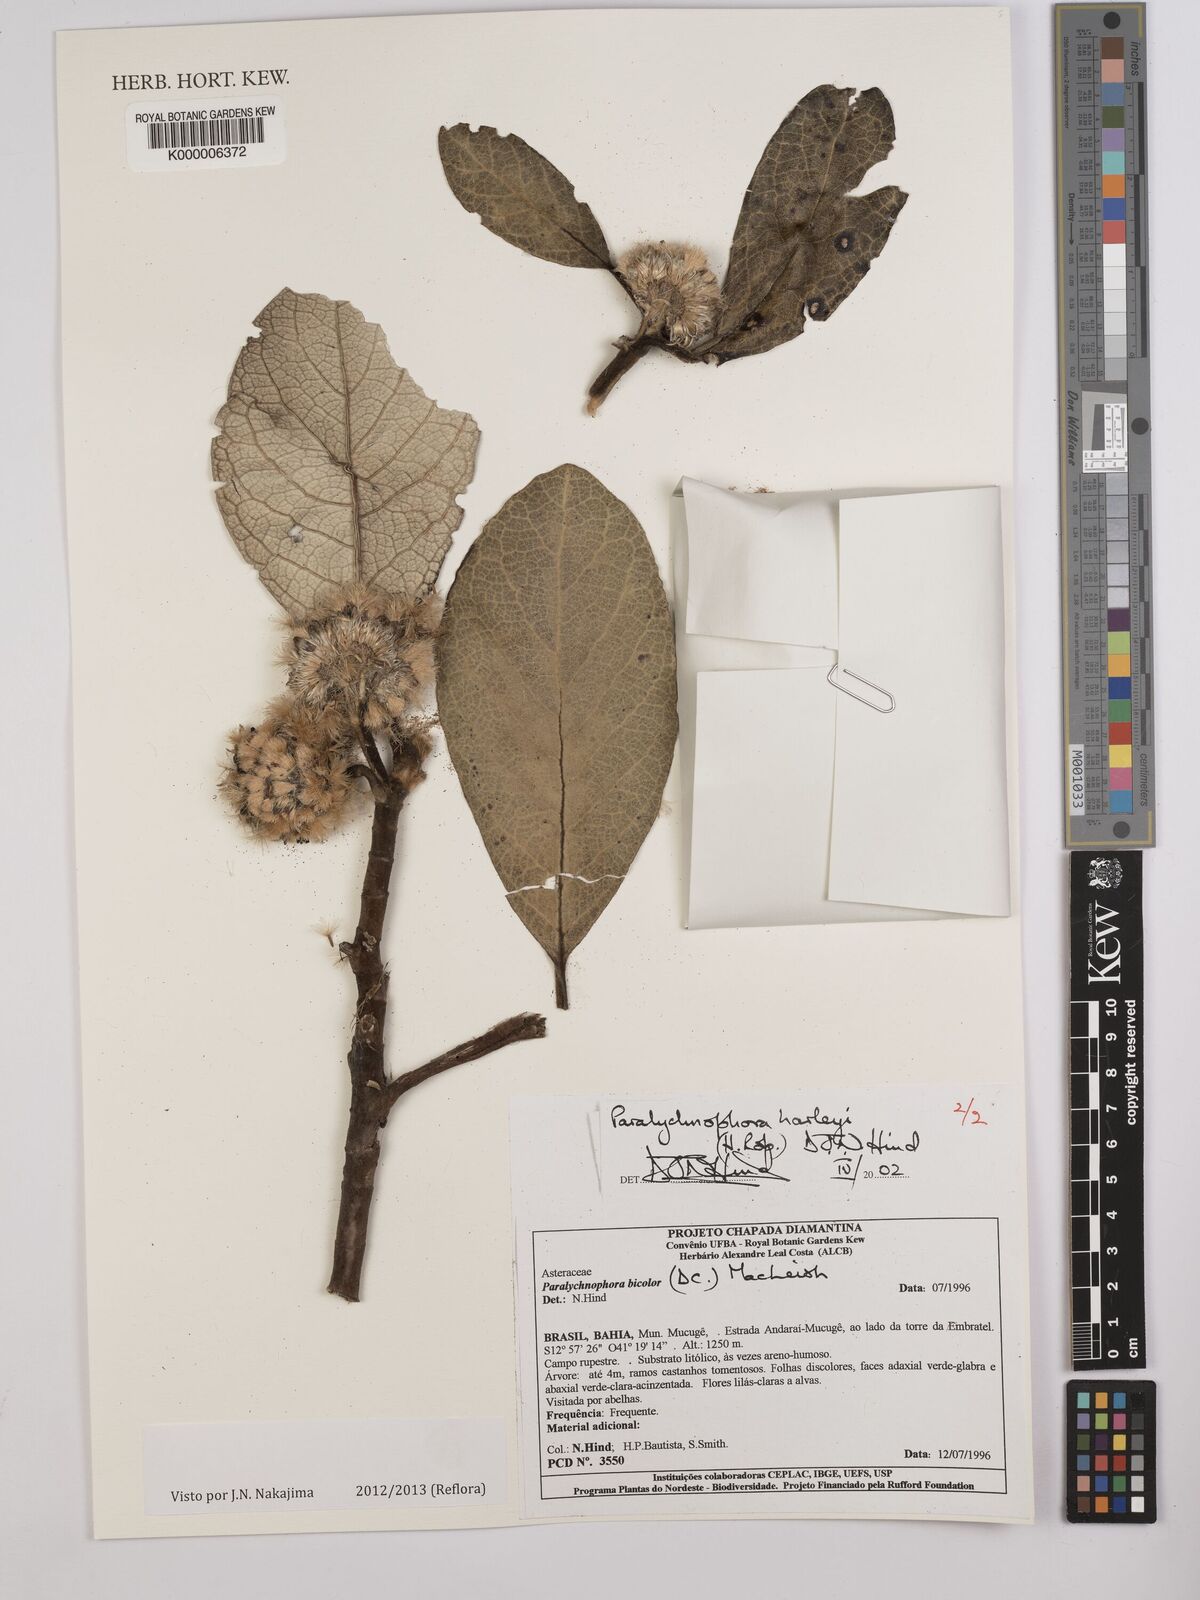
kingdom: Plantae
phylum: Tracheophyta
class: Magnoliopsida
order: Asterales
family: Asteraceae
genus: Paralychnophora
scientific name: Paralychnophora harleyi
